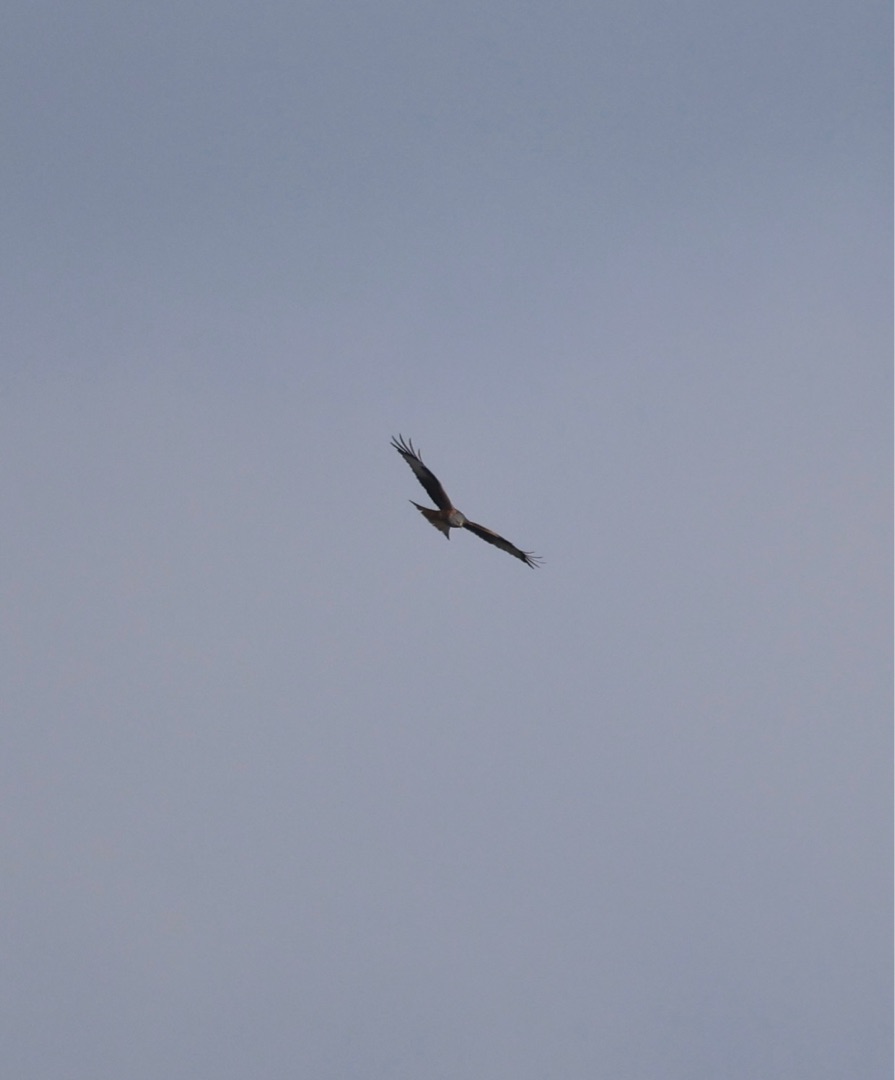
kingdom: Animalia
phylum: Chordata
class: Aves
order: Accipitriformes
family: Accipitridae
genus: Milvus
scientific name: Milvus milvus
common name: Rød glente
